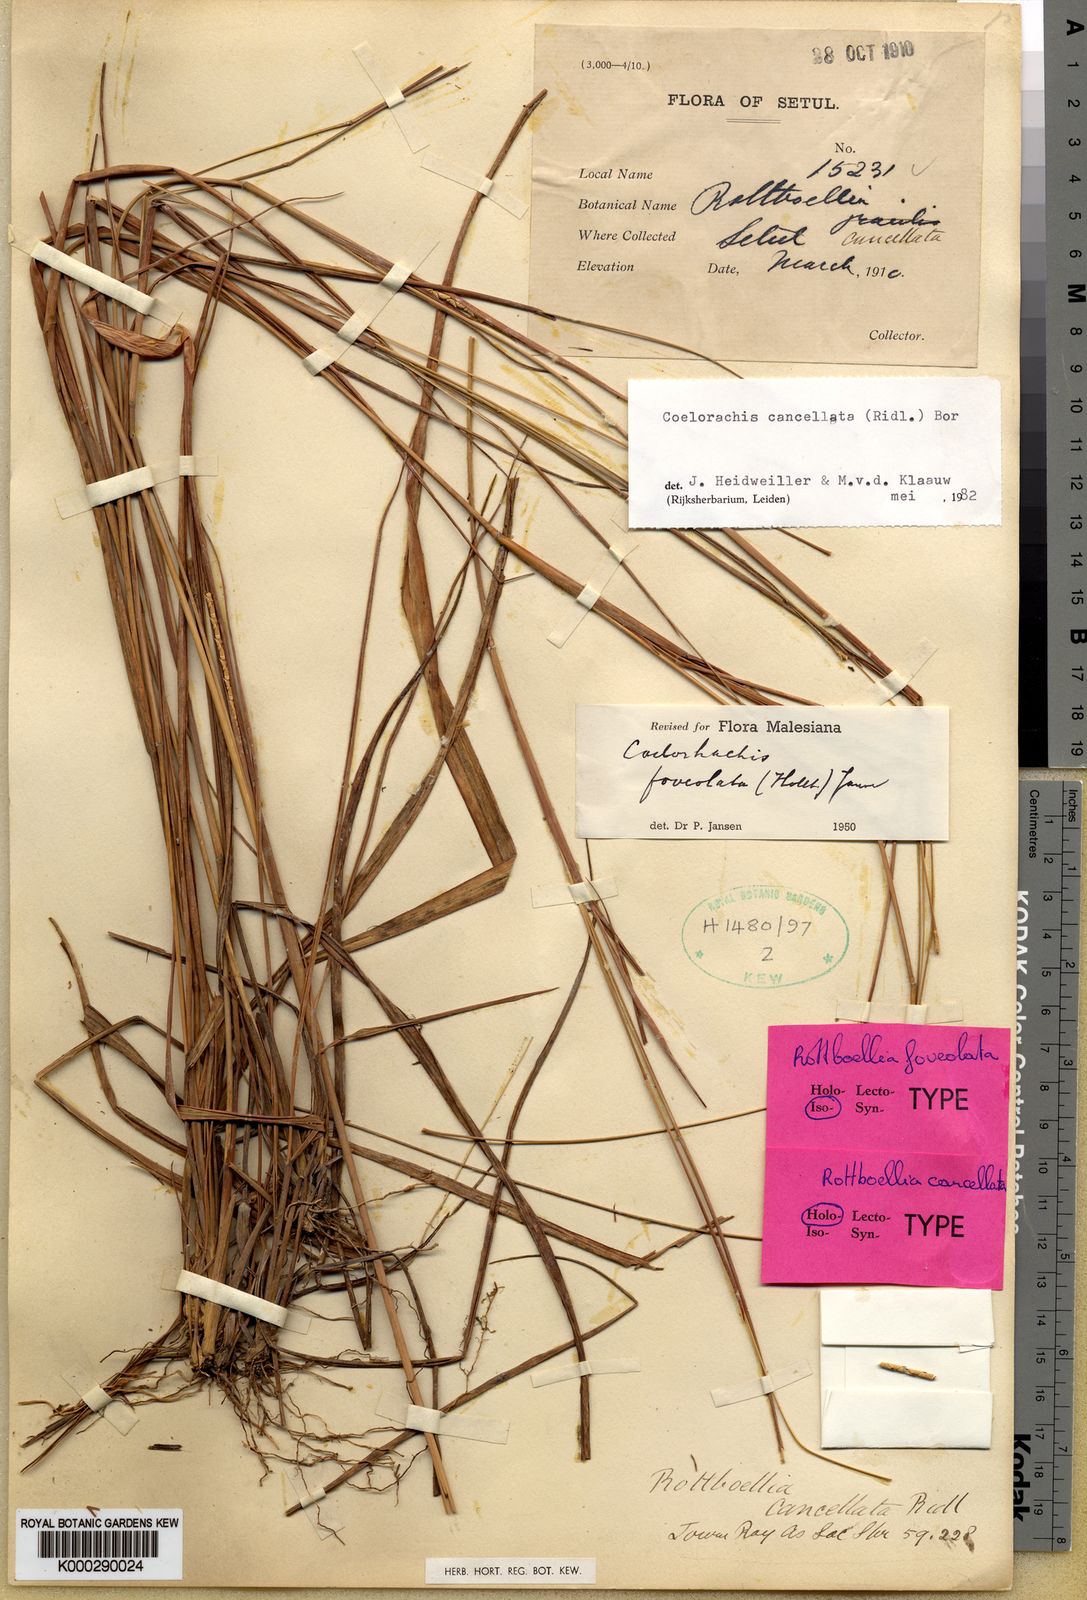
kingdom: Plantae
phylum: Tracheophyta
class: Liliopsida
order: Poales
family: Poaceae
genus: Rottboellia
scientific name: Rottboellia cancellata
